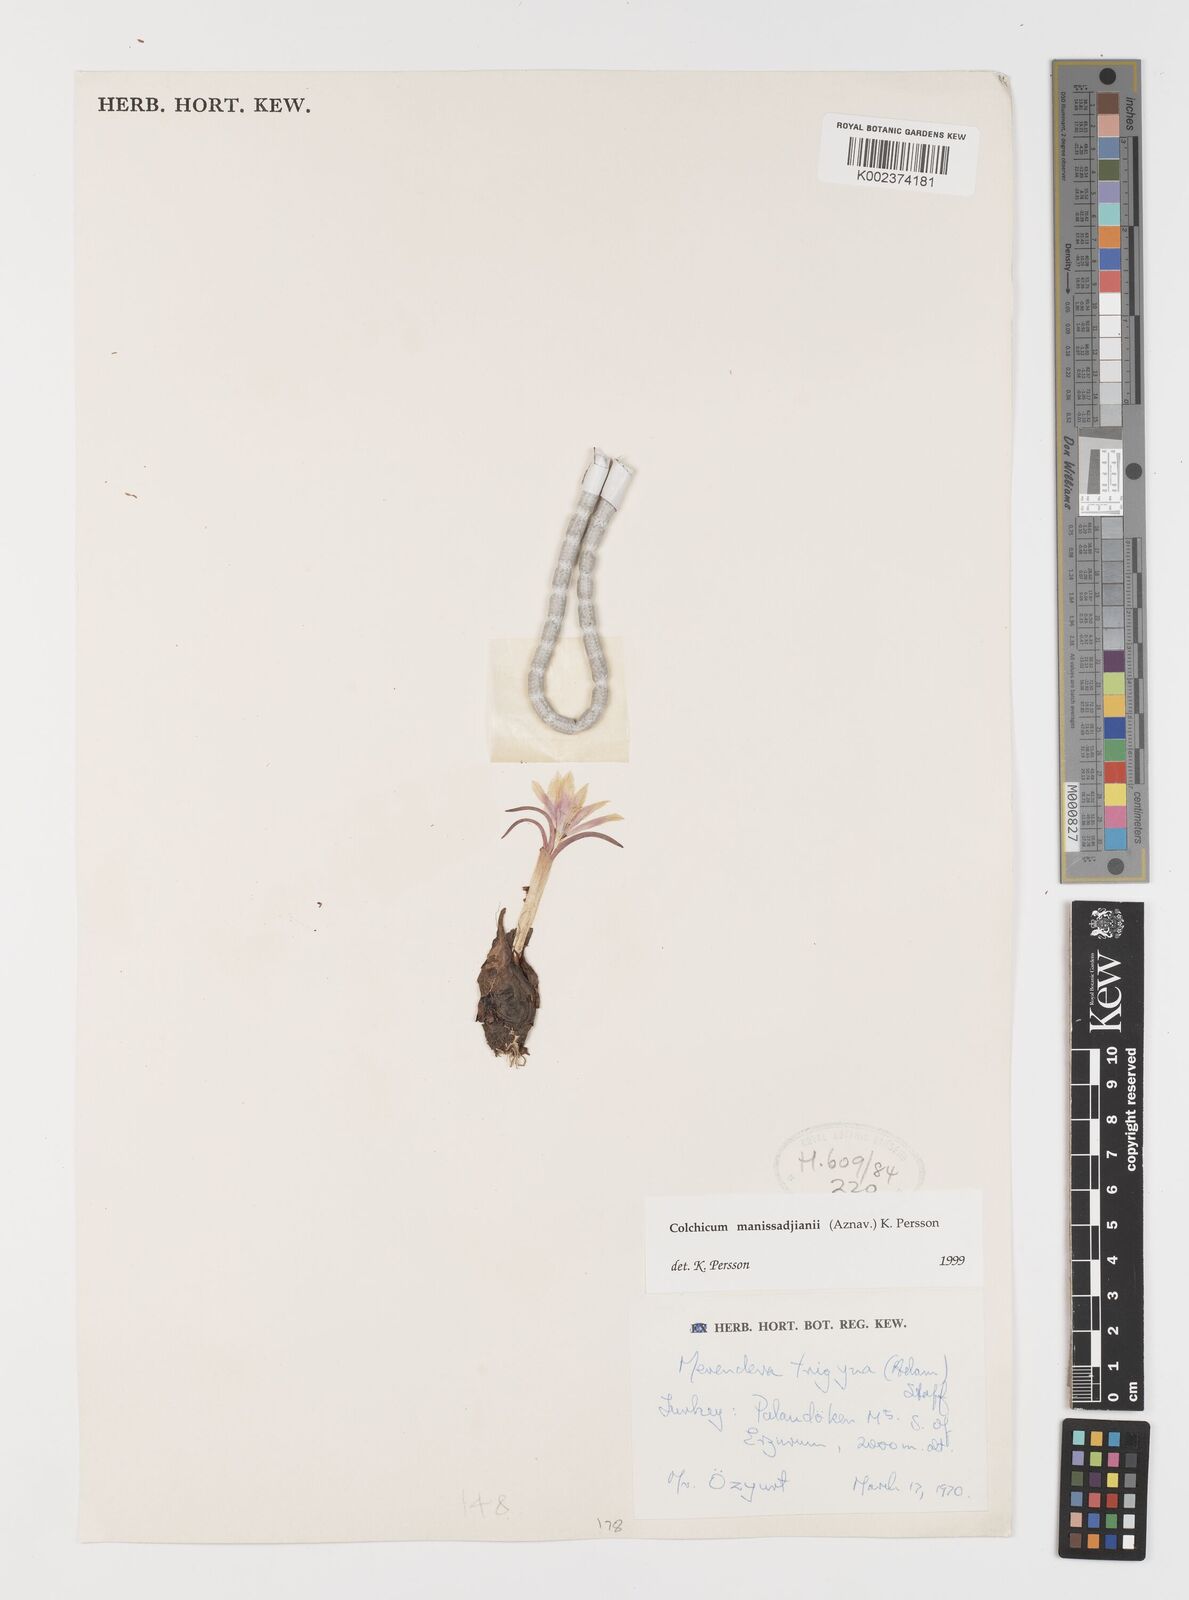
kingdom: Plantae
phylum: Tracheophyta
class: Liliopsida
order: Liliales
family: Colchicaceae
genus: Colchicum
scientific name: Colchicum manissadjianii
